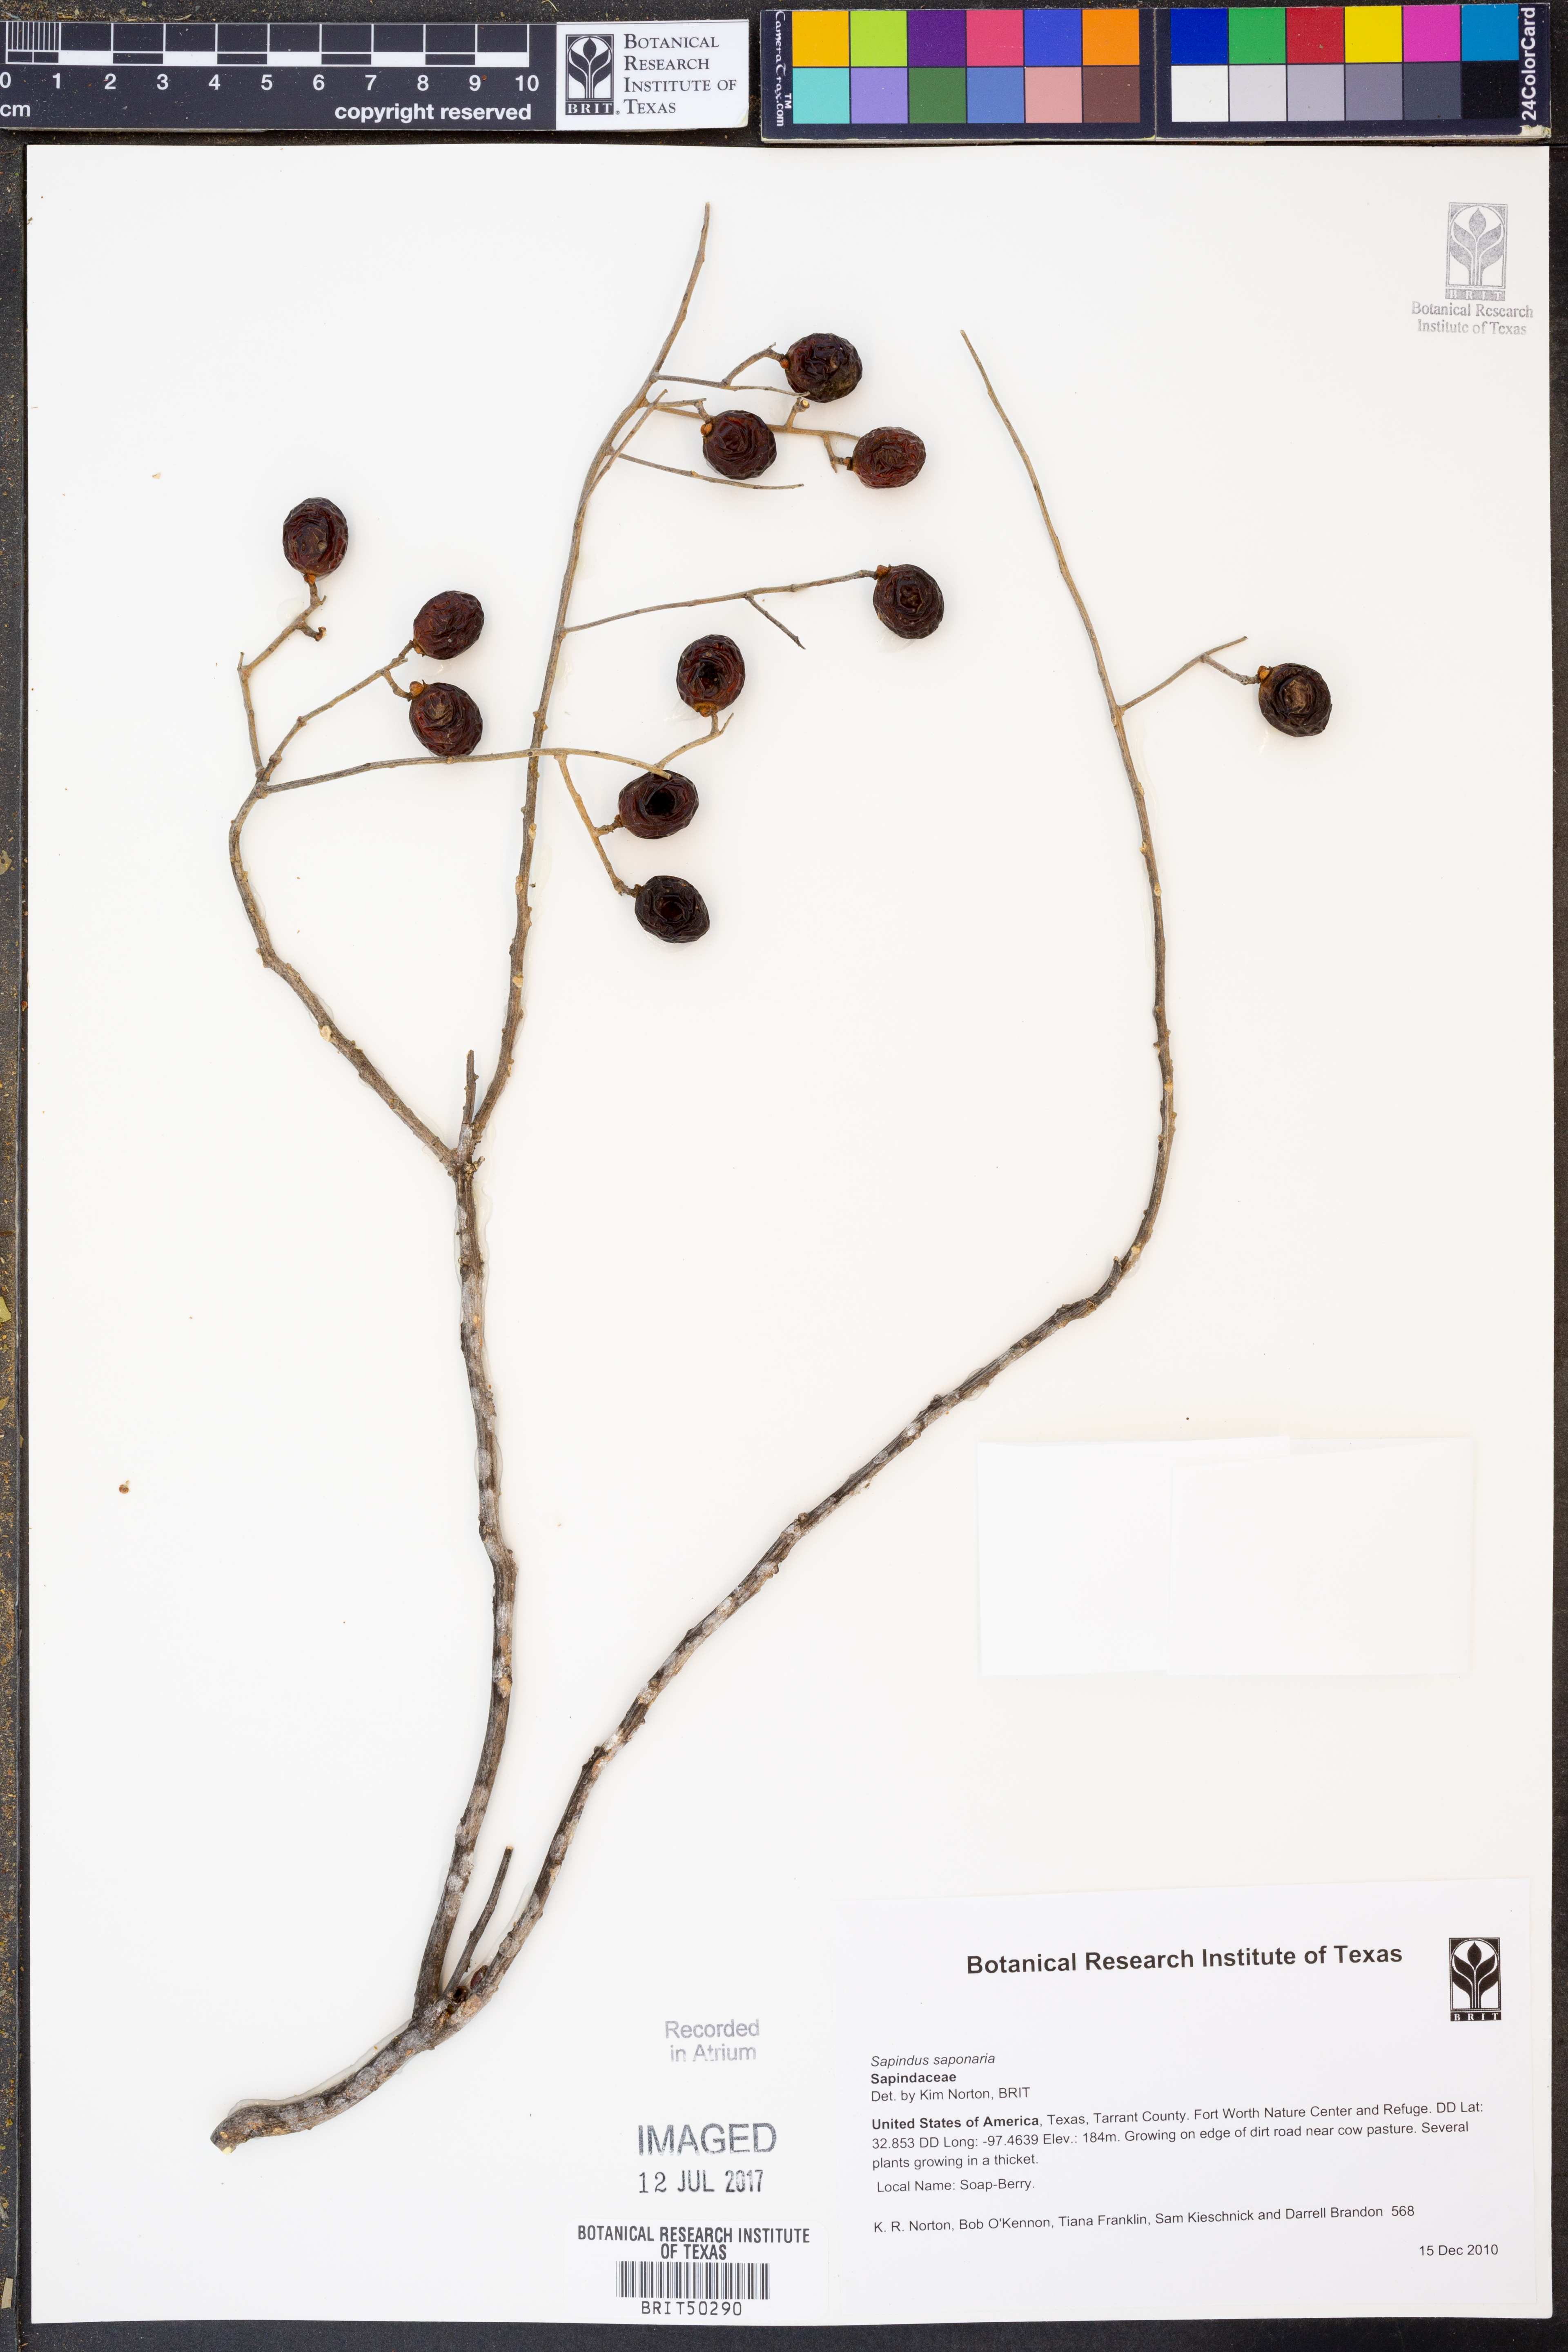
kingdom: Plantae
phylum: Tracheophyta
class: Magnoliopsida
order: Sapindales
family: Sapindaceae
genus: Sapindus
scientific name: Sapindus saponaria
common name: Wingleaf soapberry
